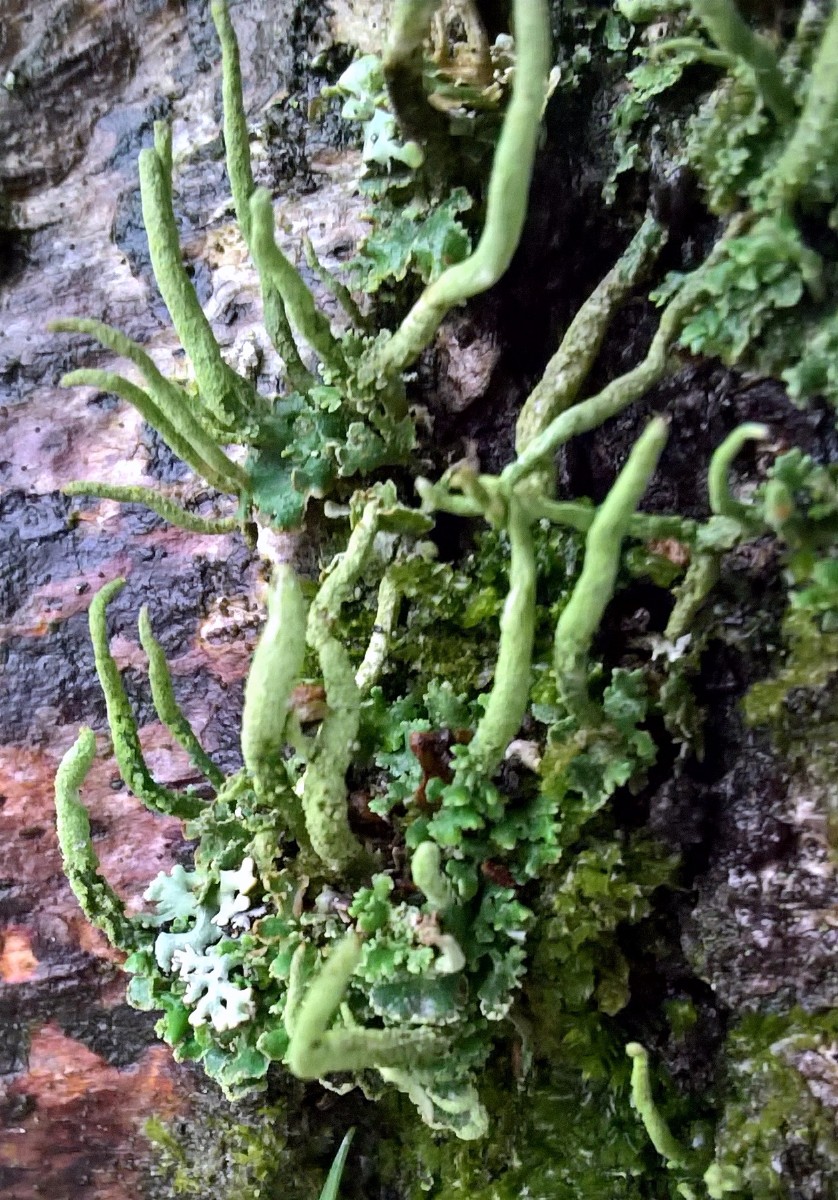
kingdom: Fungi
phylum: Ascomycota
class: Lecanoromycetes
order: Lecanorales
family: Cladoniaceae
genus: Cladonia
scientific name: Cladonia coniocraea
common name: træfods-bægerlav
